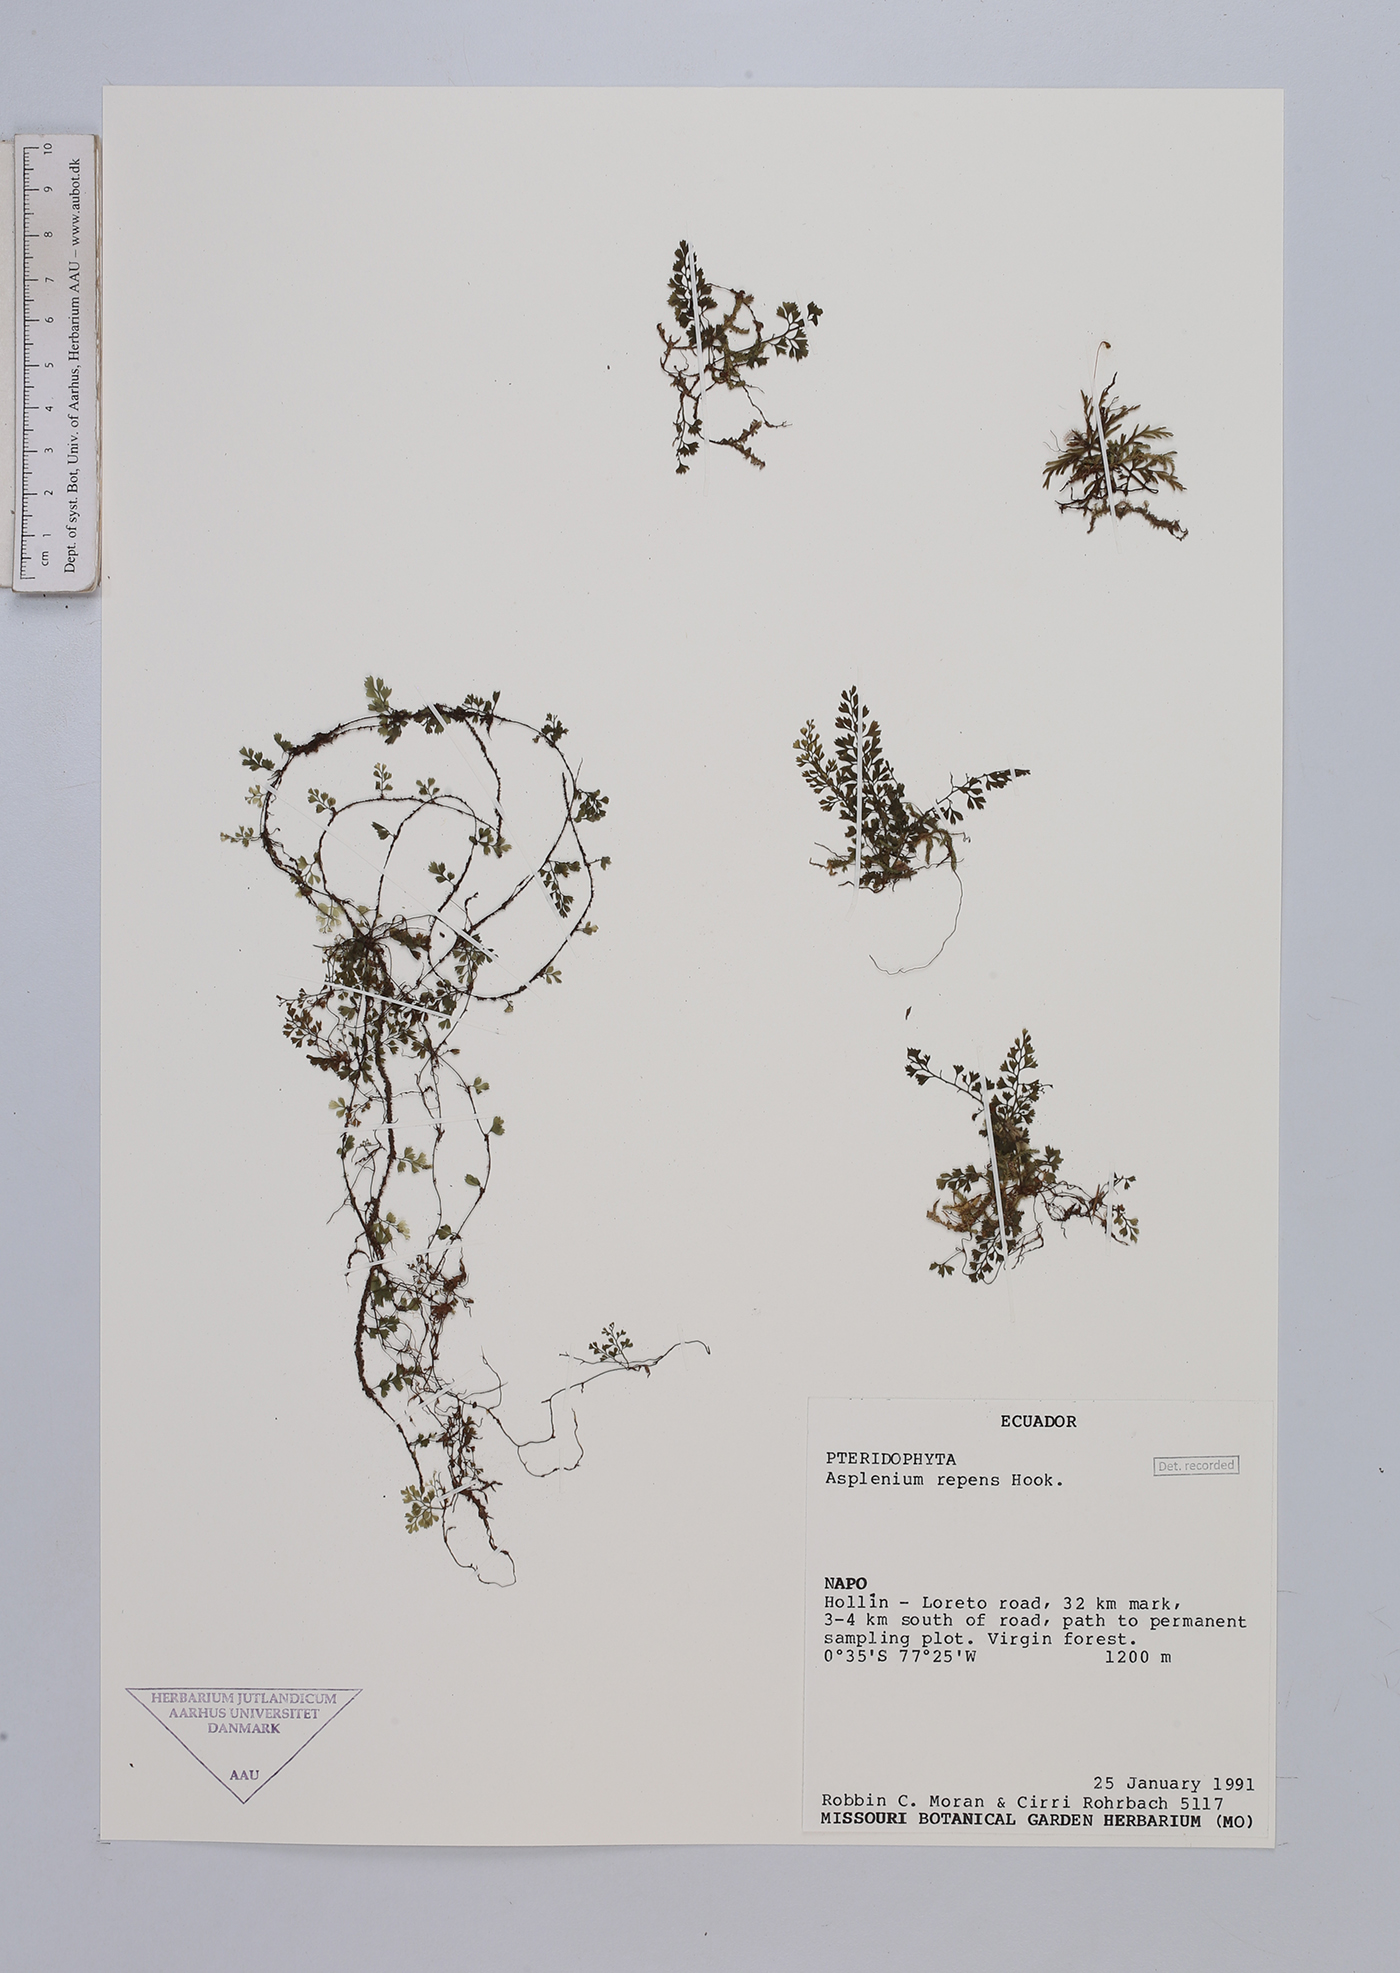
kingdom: Plantae
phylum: Tracheophyta
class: Polypodiopsida
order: Polypodiales
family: Aspleniaceae
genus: Asplenium
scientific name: Asplenium repens
